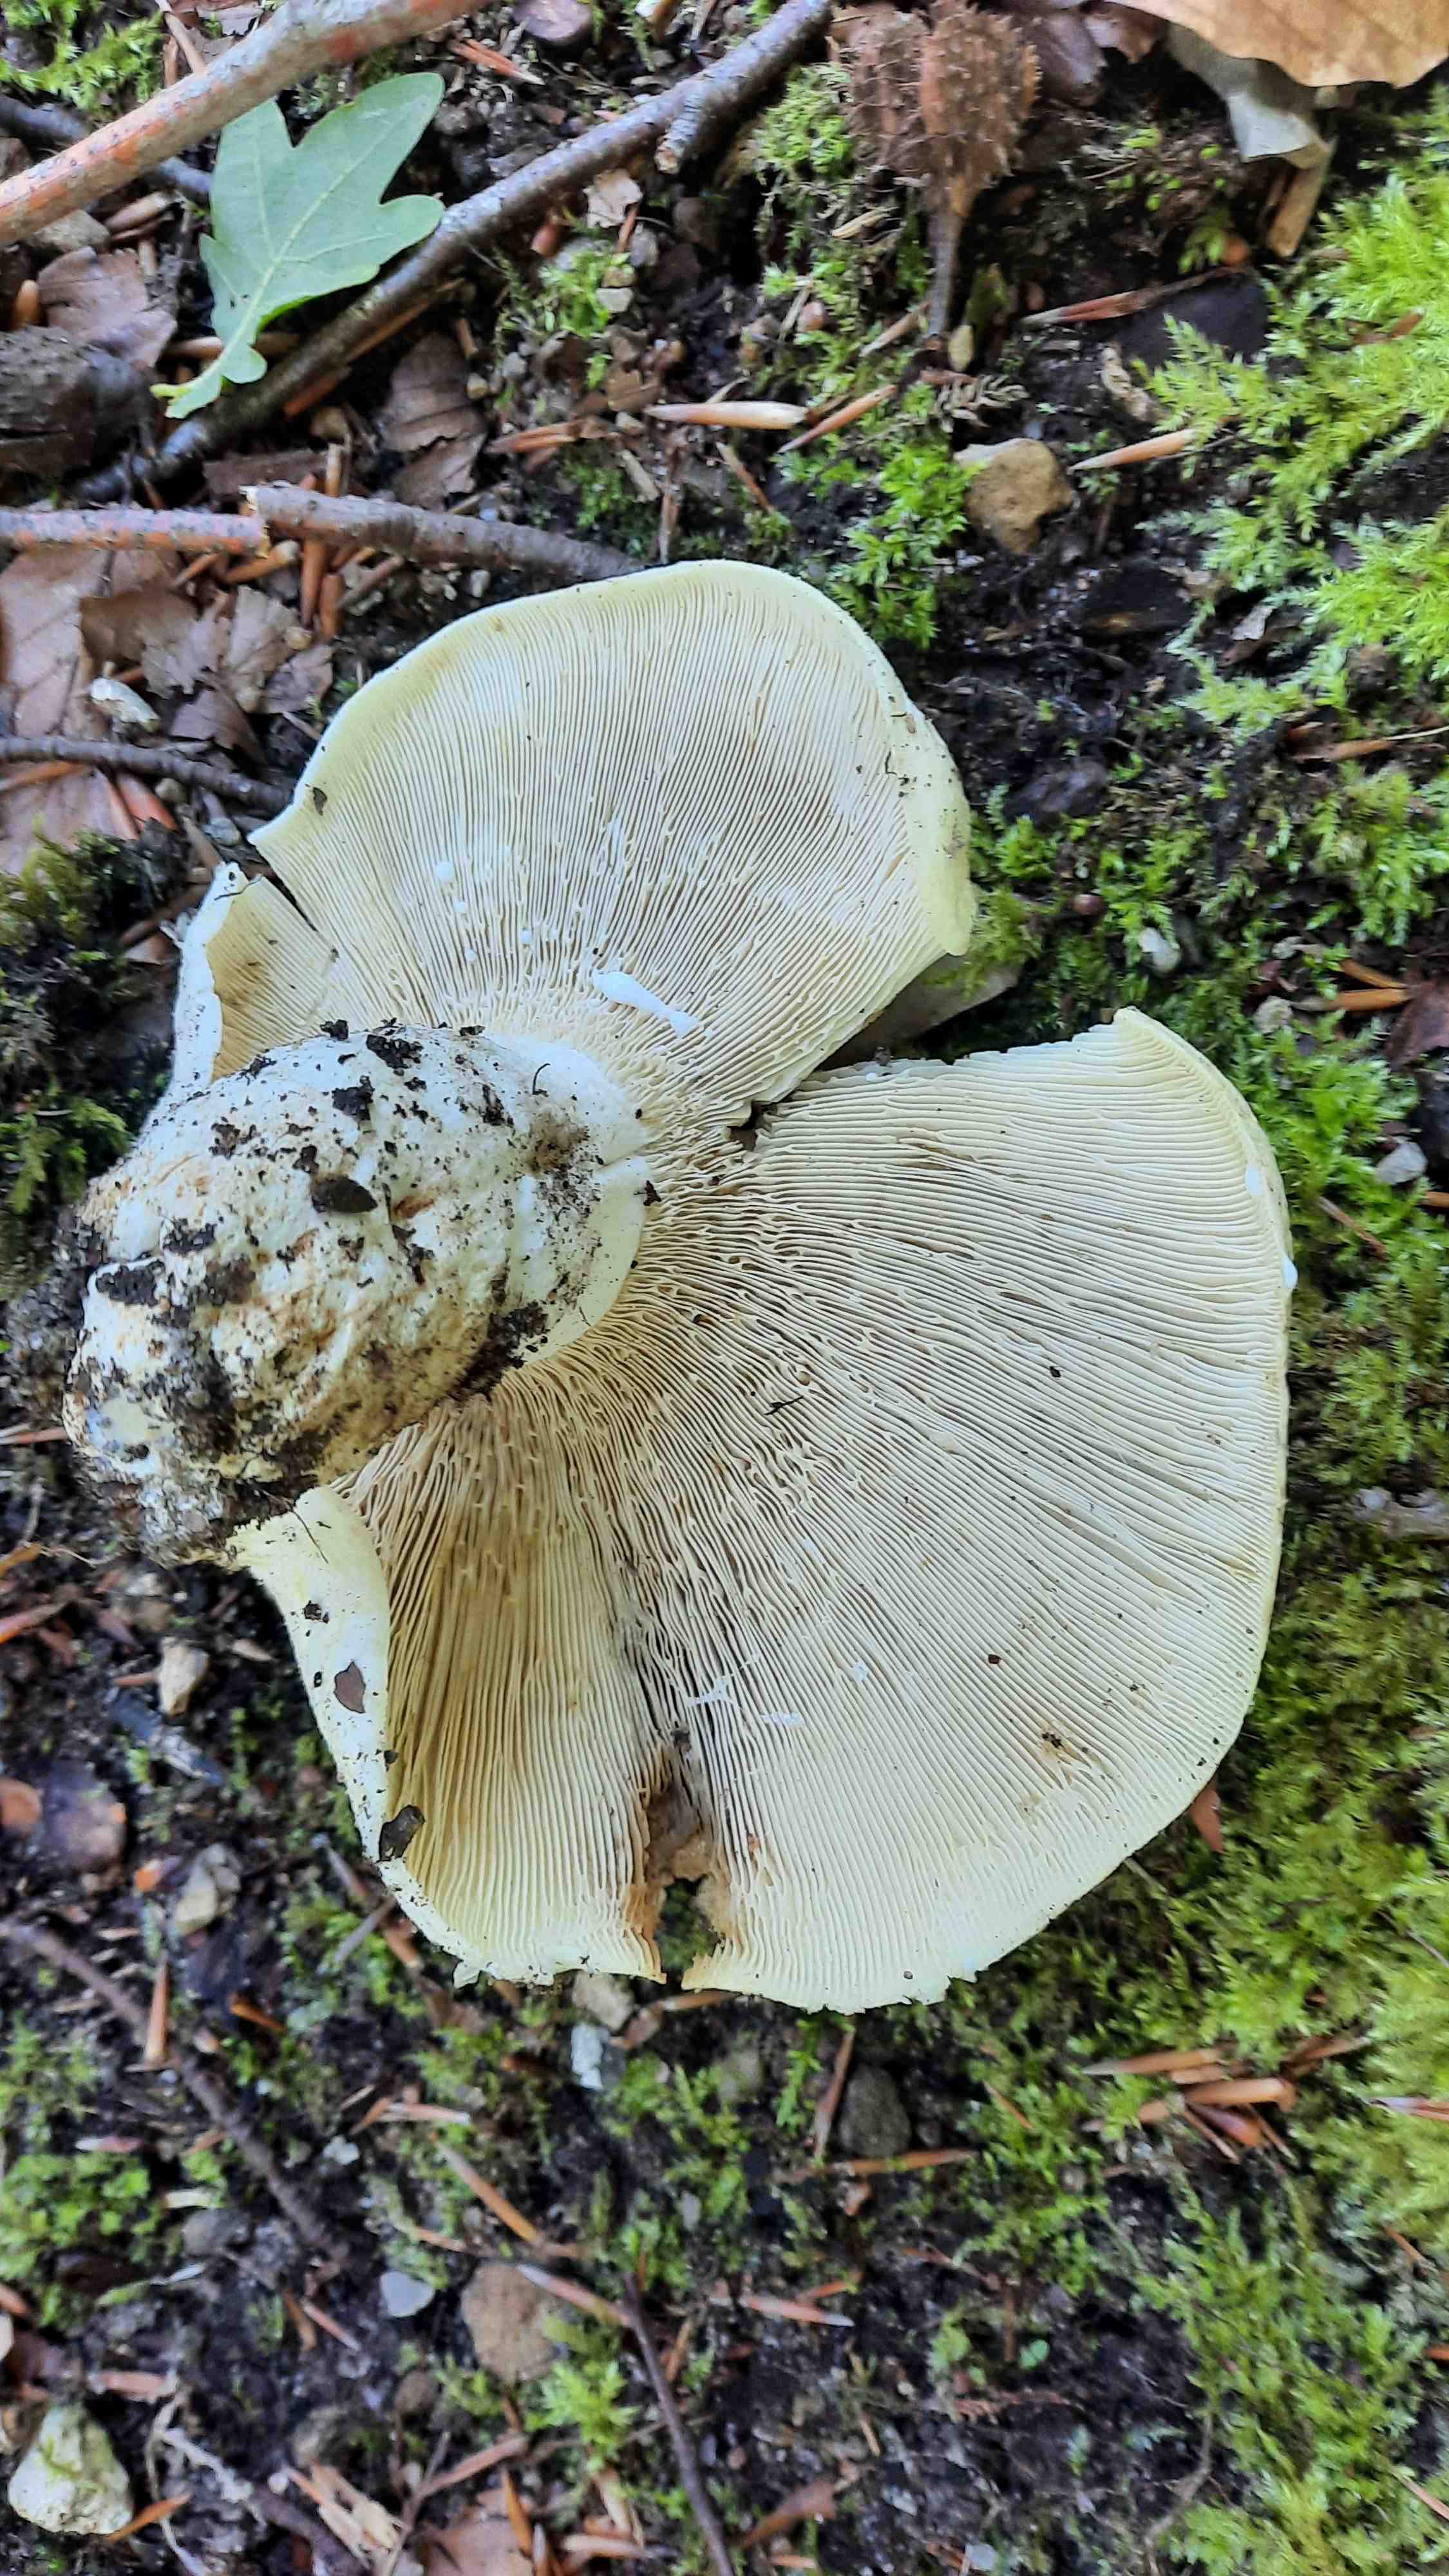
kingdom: Fungi
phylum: Basidiomycota
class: Agaricomycetes
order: Russulales
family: Russulaceae
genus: Lactifluus
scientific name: Lactifluus piperatus
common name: peber-mælkehat
